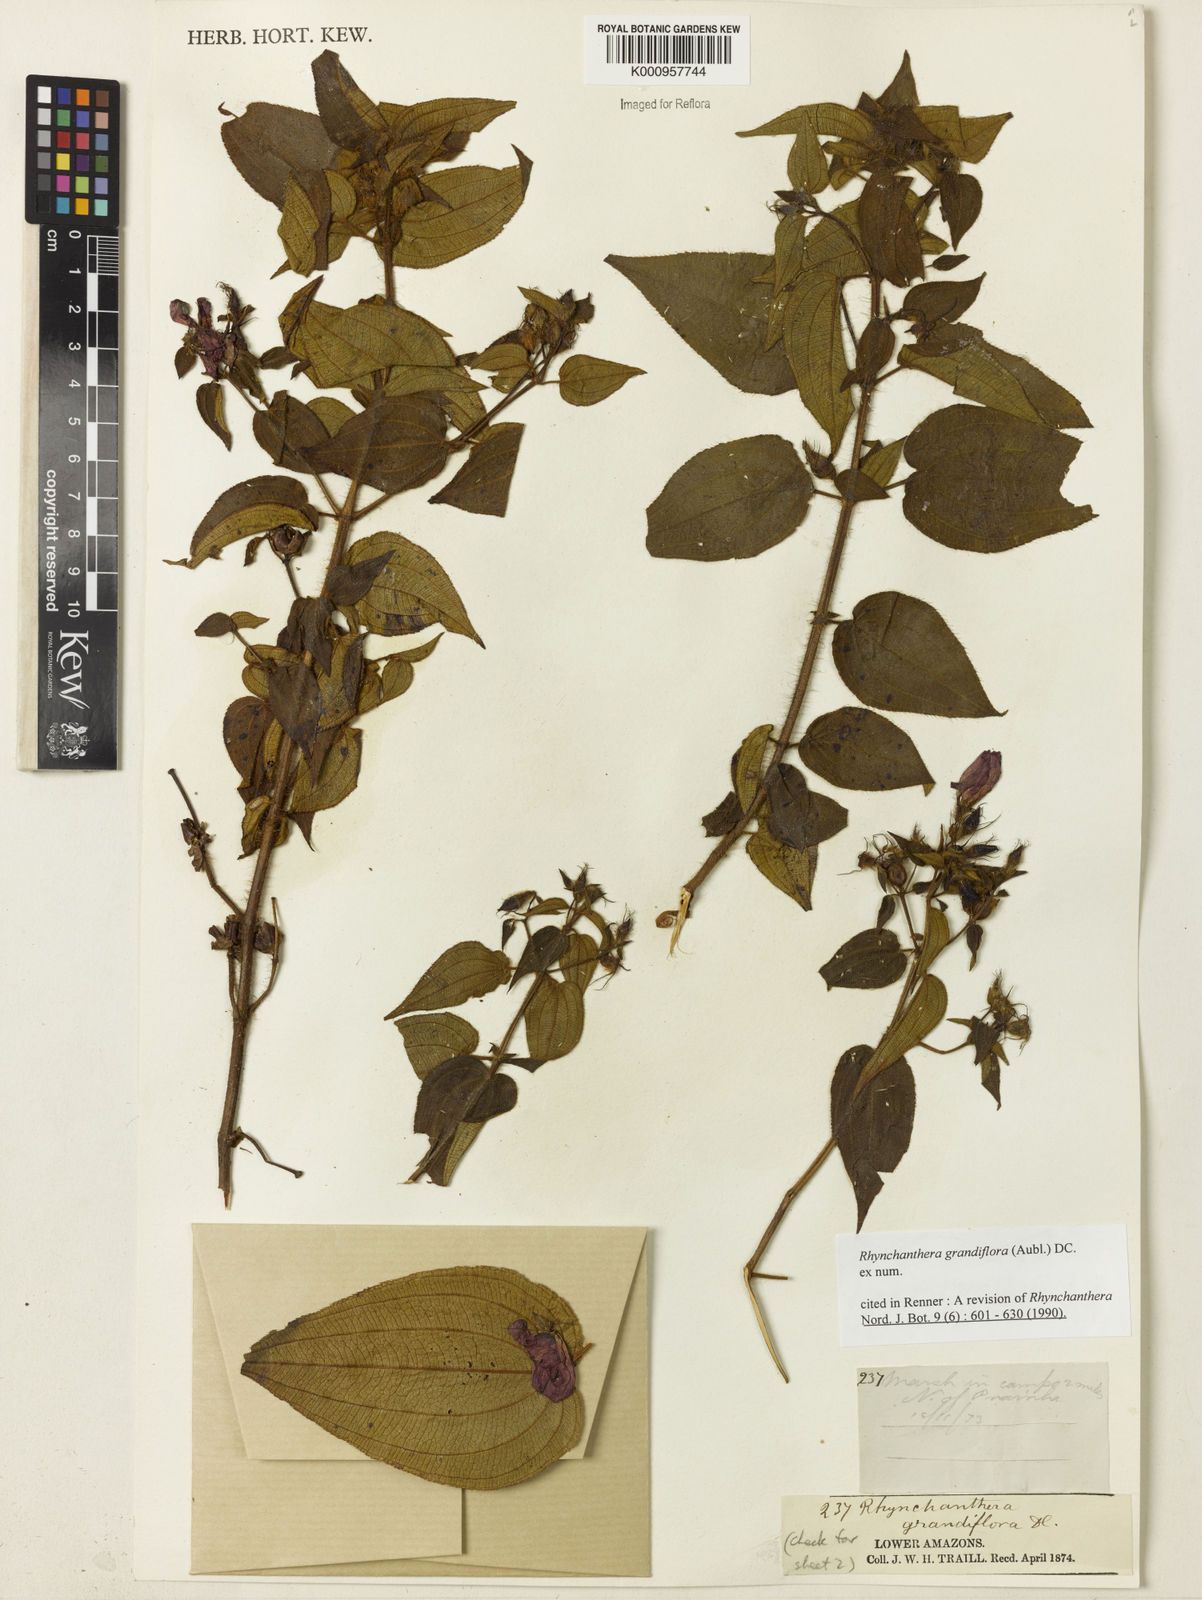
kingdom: Plantae
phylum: Tracheophyta
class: Magnoliopsida
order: Myrtales
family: Melastomataceae
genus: Rhynchanthera
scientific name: Rhynchanthera grandiflora
